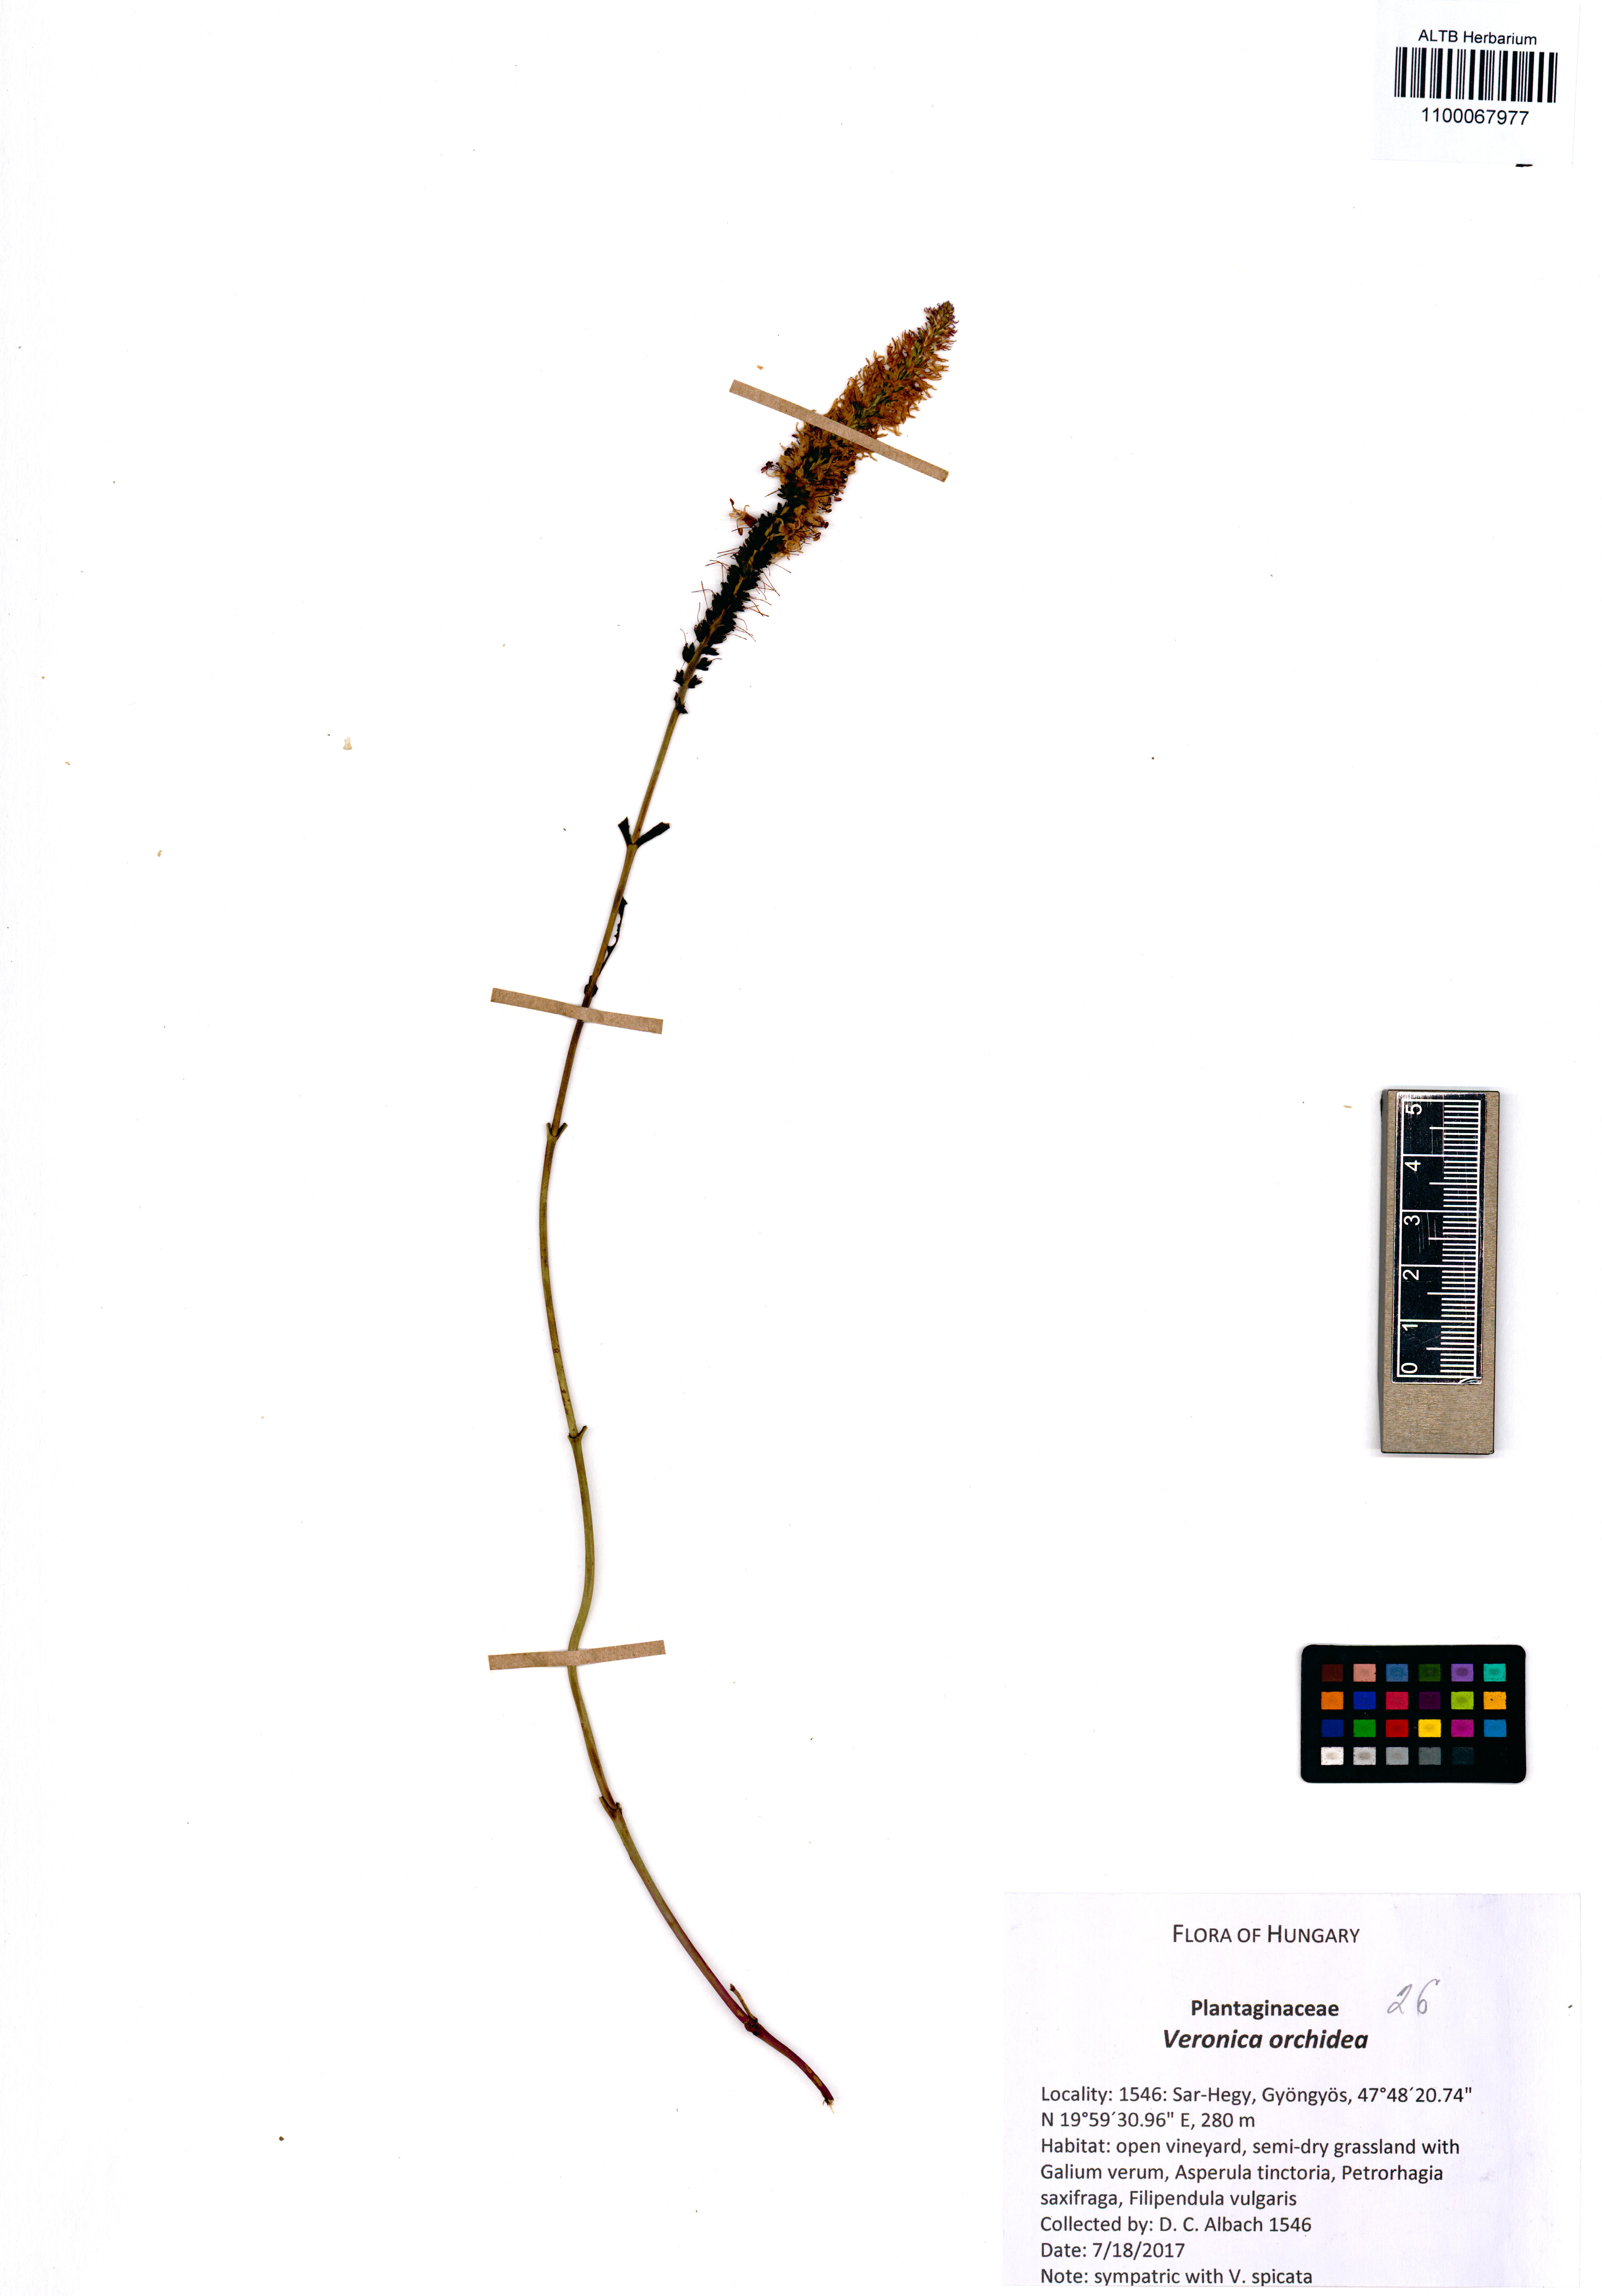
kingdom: Plantae
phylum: Tracheophyta
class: Magnoliopsida
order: Lamiales
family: Plantaginaceae
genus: Veronica
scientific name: Veronica orchidea
